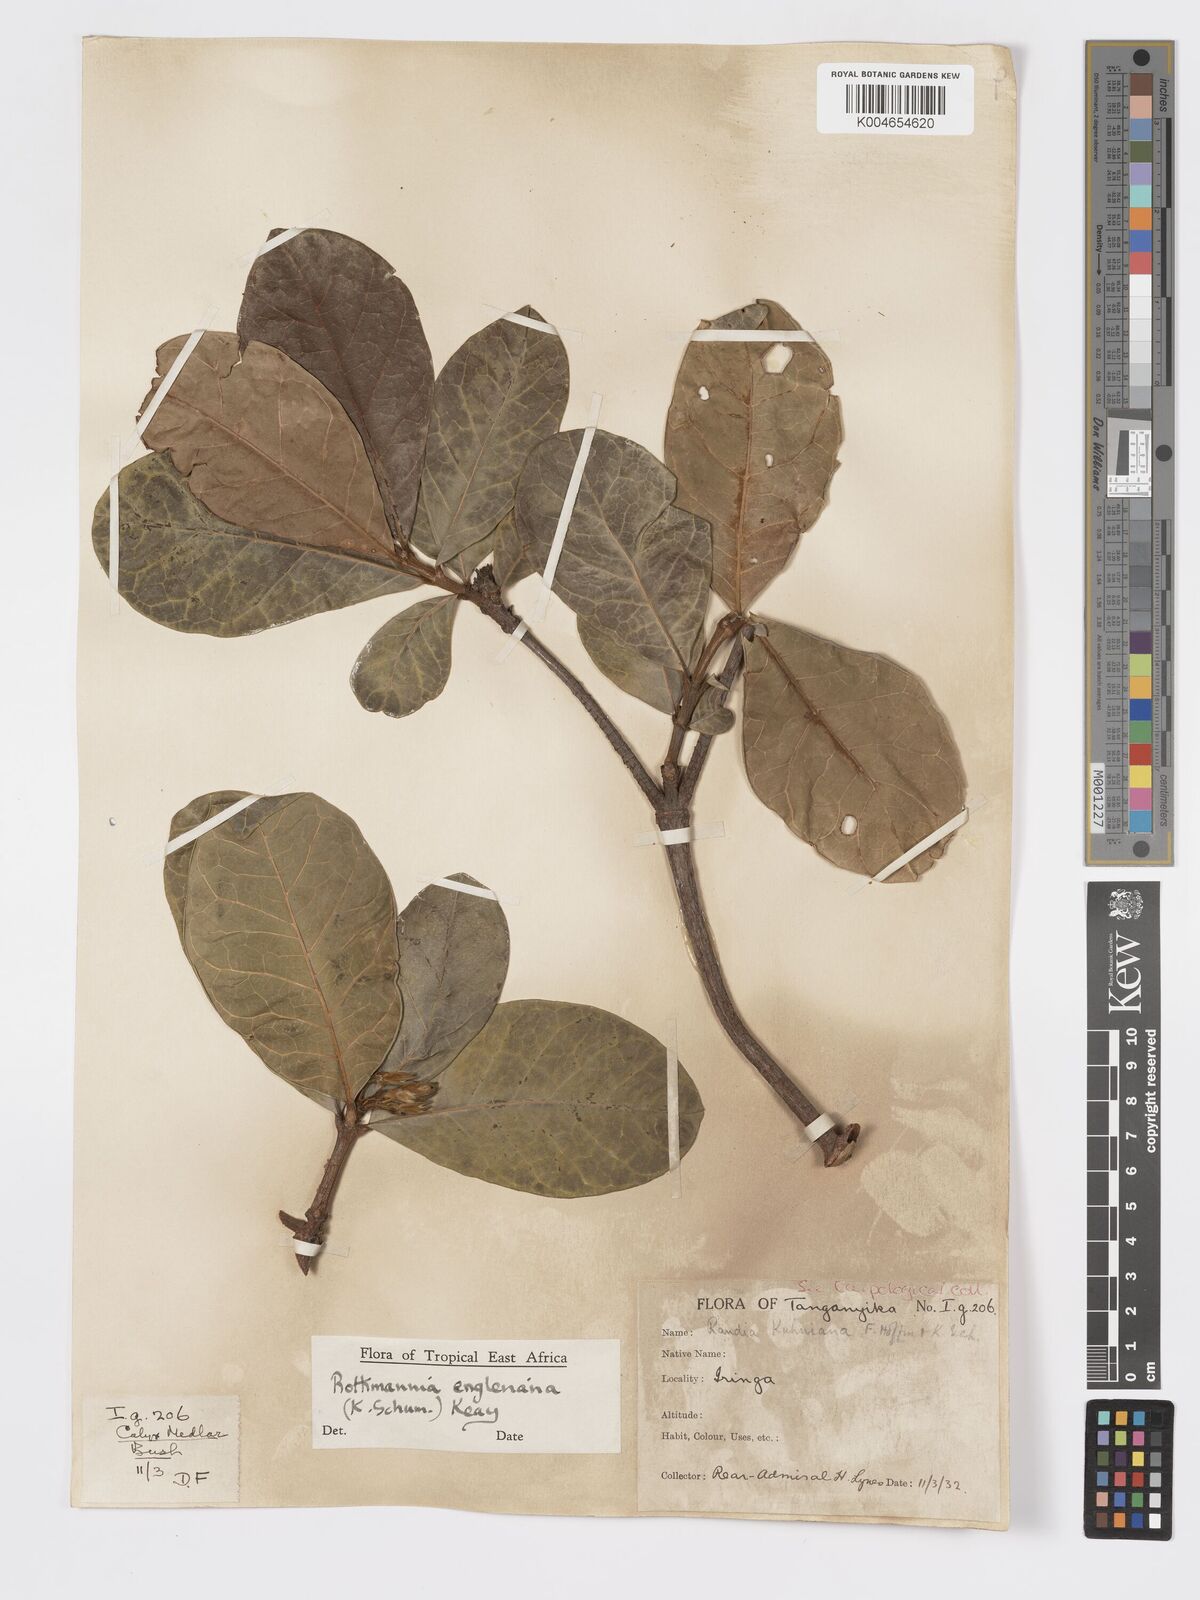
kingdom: Plantae
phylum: Tracheophyta
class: Magnoliopsida
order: Gentianales
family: Rubiaceae
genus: Rothmannia
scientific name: Rothmannia engleriana
